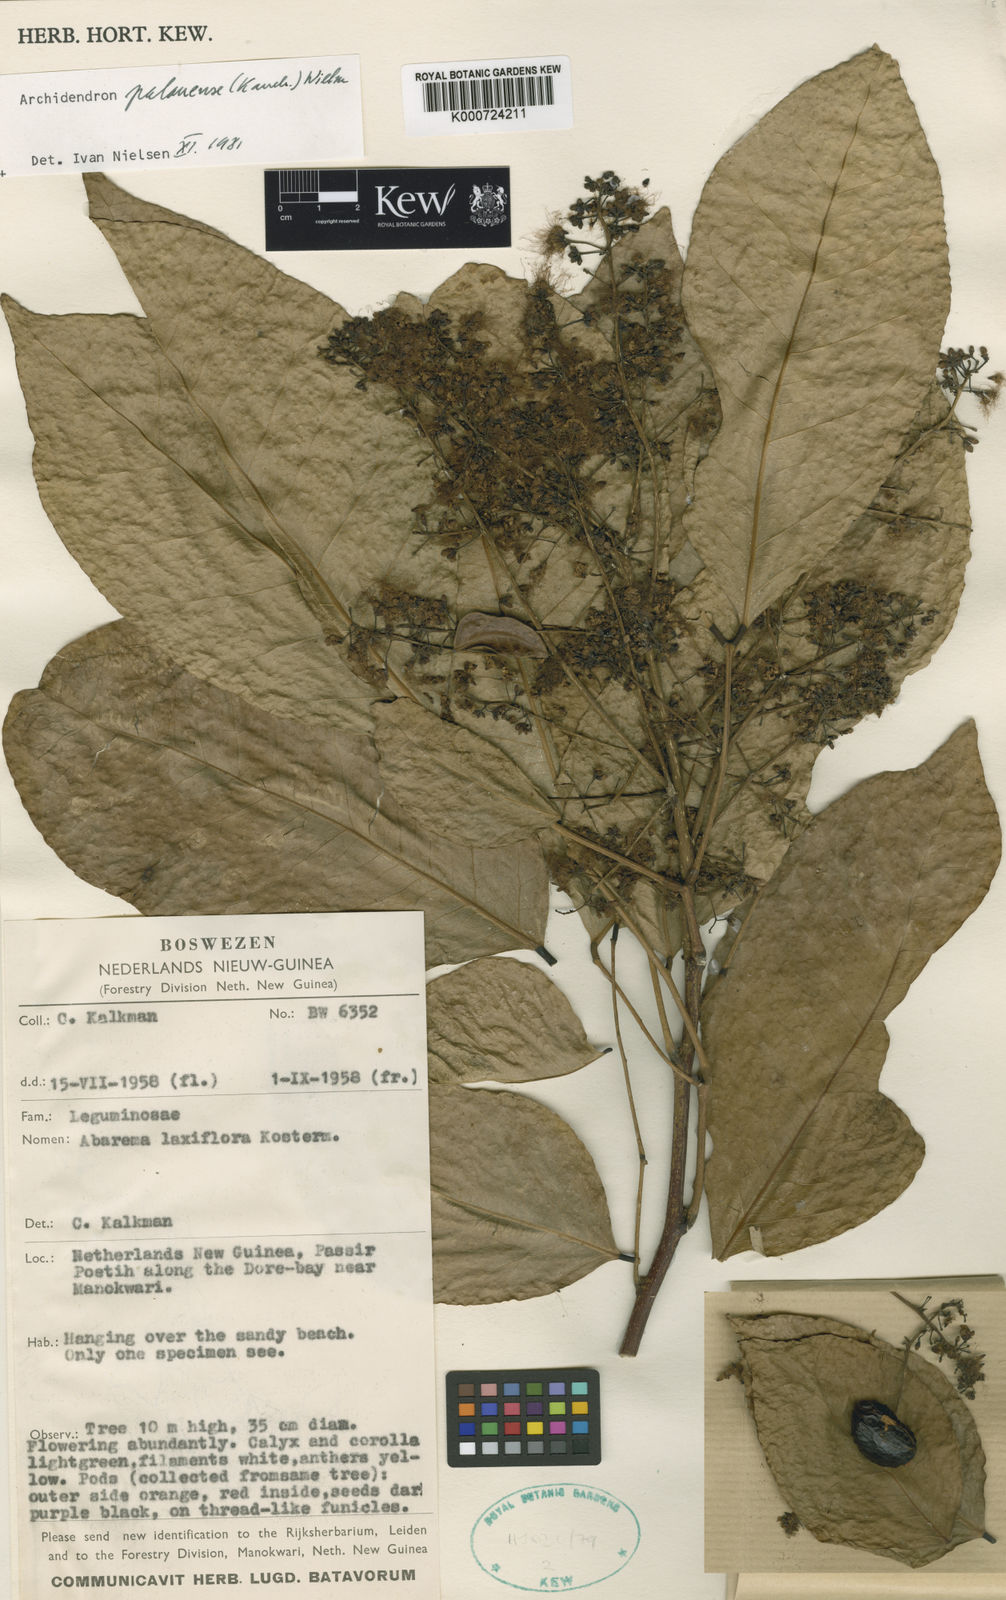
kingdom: Plantae
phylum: Tracheophyta
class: Magnoliopsida
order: Fabales
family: Fabaceae
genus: Archidendron
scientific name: Archidendron palauense
